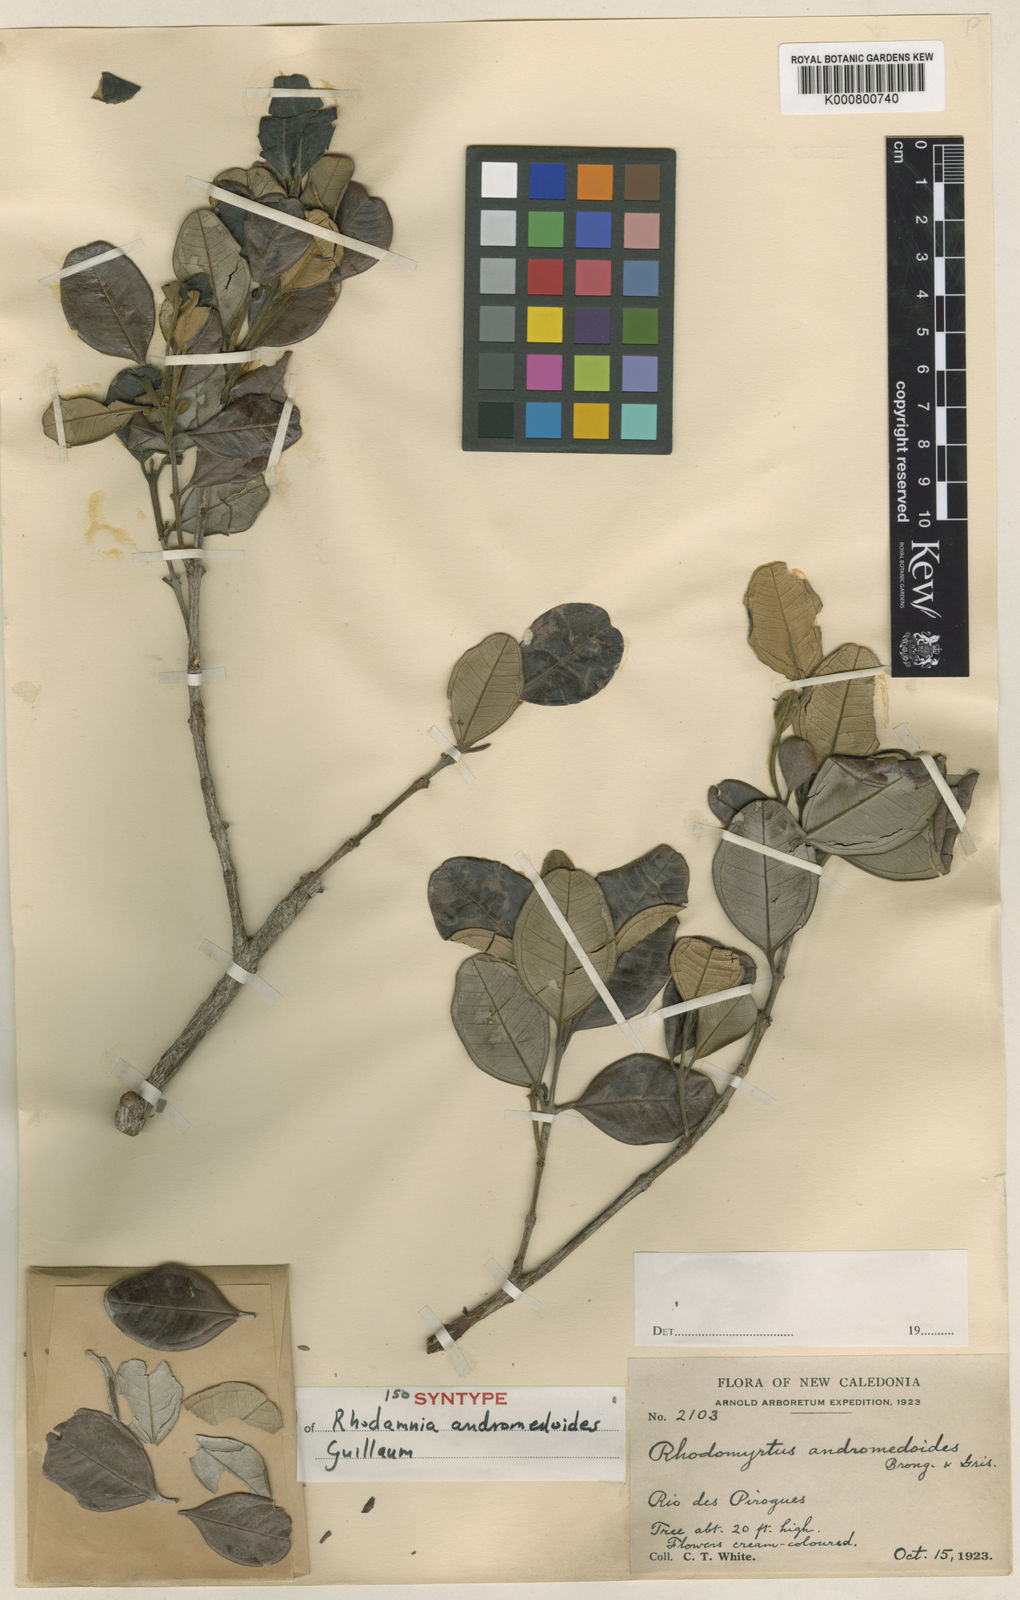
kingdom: Plantae
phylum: Tracheophyta
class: Magnoliopsida
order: Myrtales
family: Myrtaceae
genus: Rhodamnia
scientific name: Rhodamnia andromedoides
